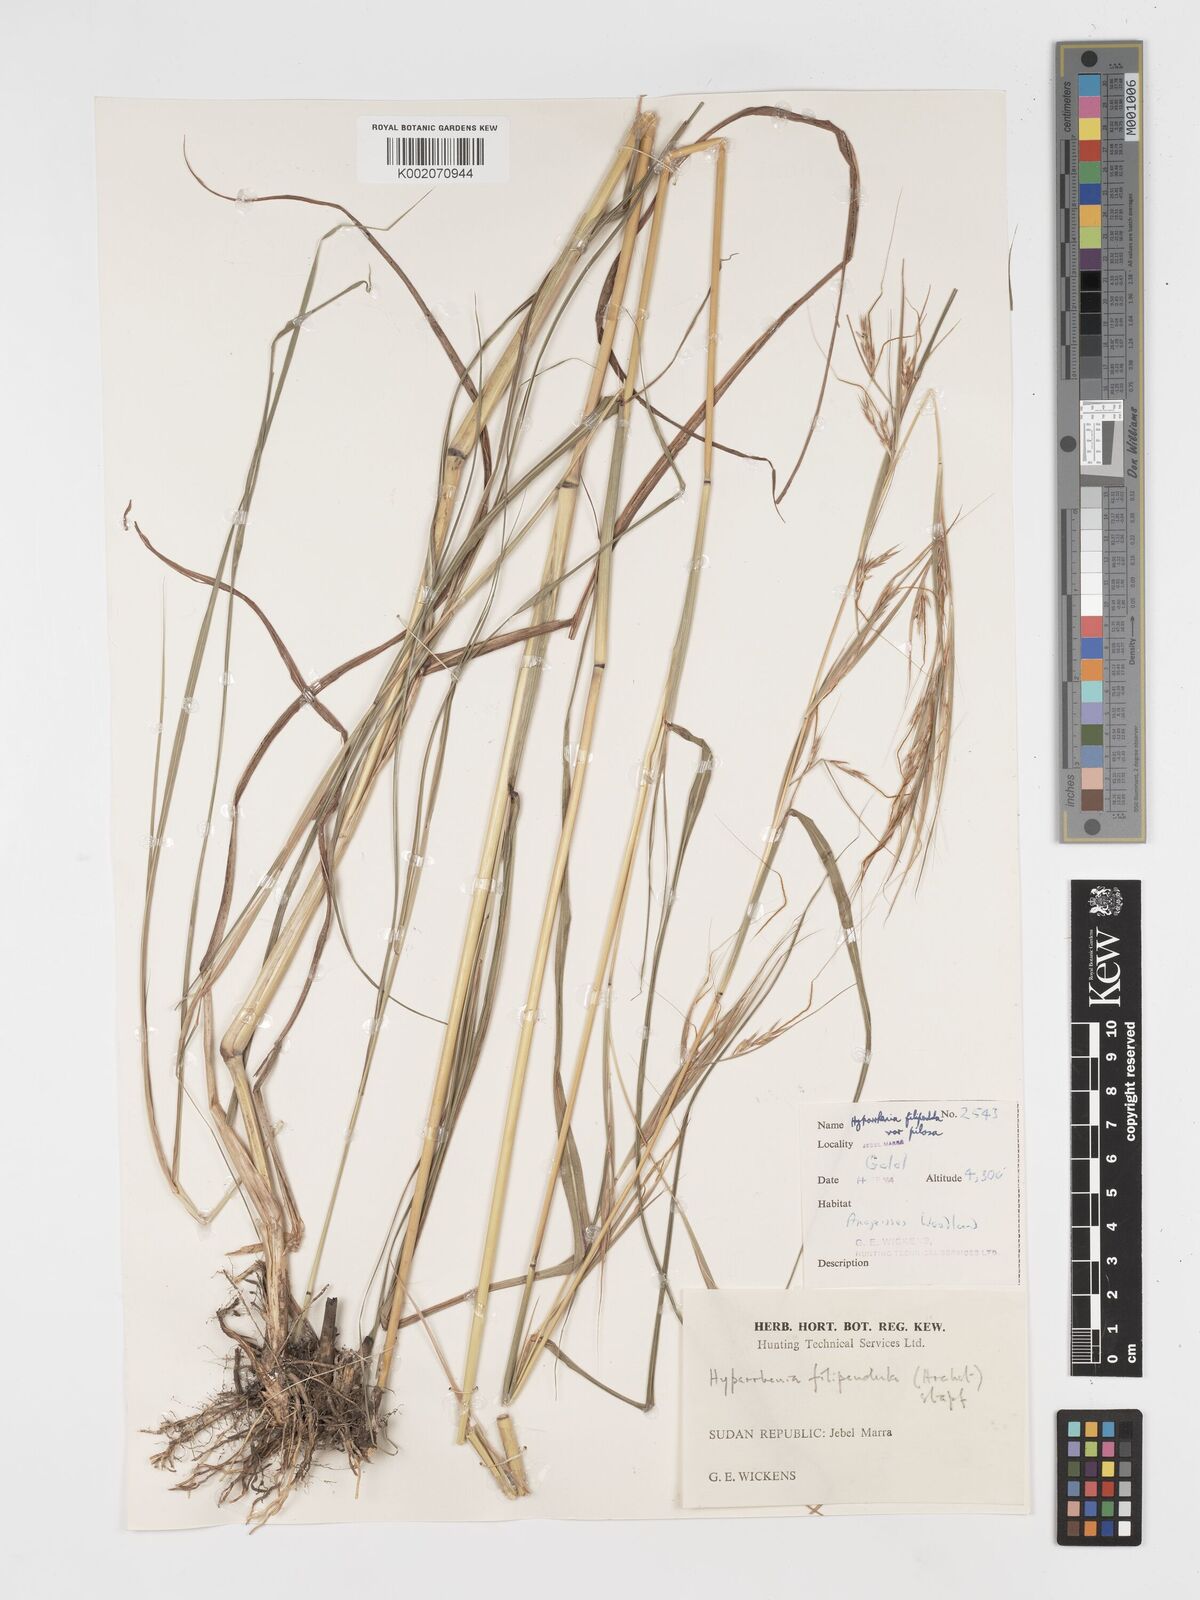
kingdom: Plantae
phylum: Tracheophyta
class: Liliopsida
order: Poales
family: Poaceae
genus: Hyparrhenia
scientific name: Hyparrhenia filipendula
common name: Tambookie grass
